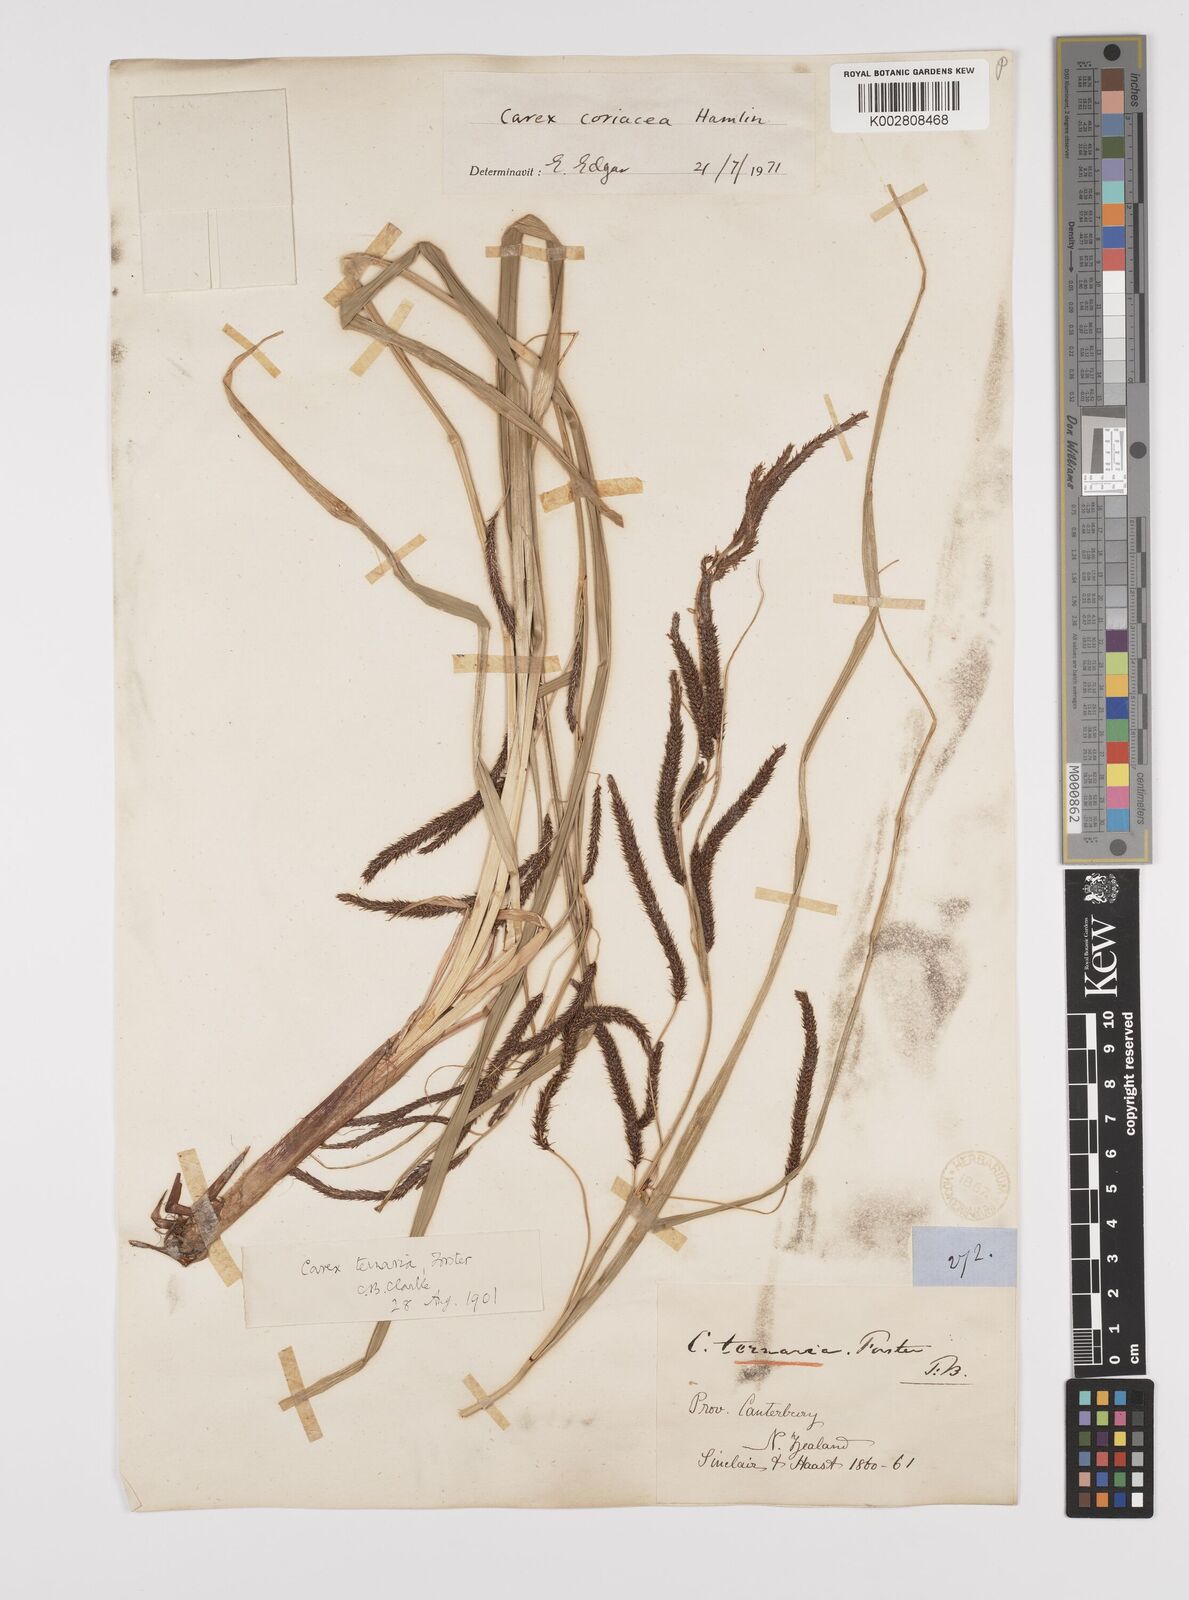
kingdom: Plantae
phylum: Tracheophyta
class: Liliopsida
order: Poales
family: Cyperaceae
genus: Carex
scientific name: Carex coriacea
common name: Rautahi
